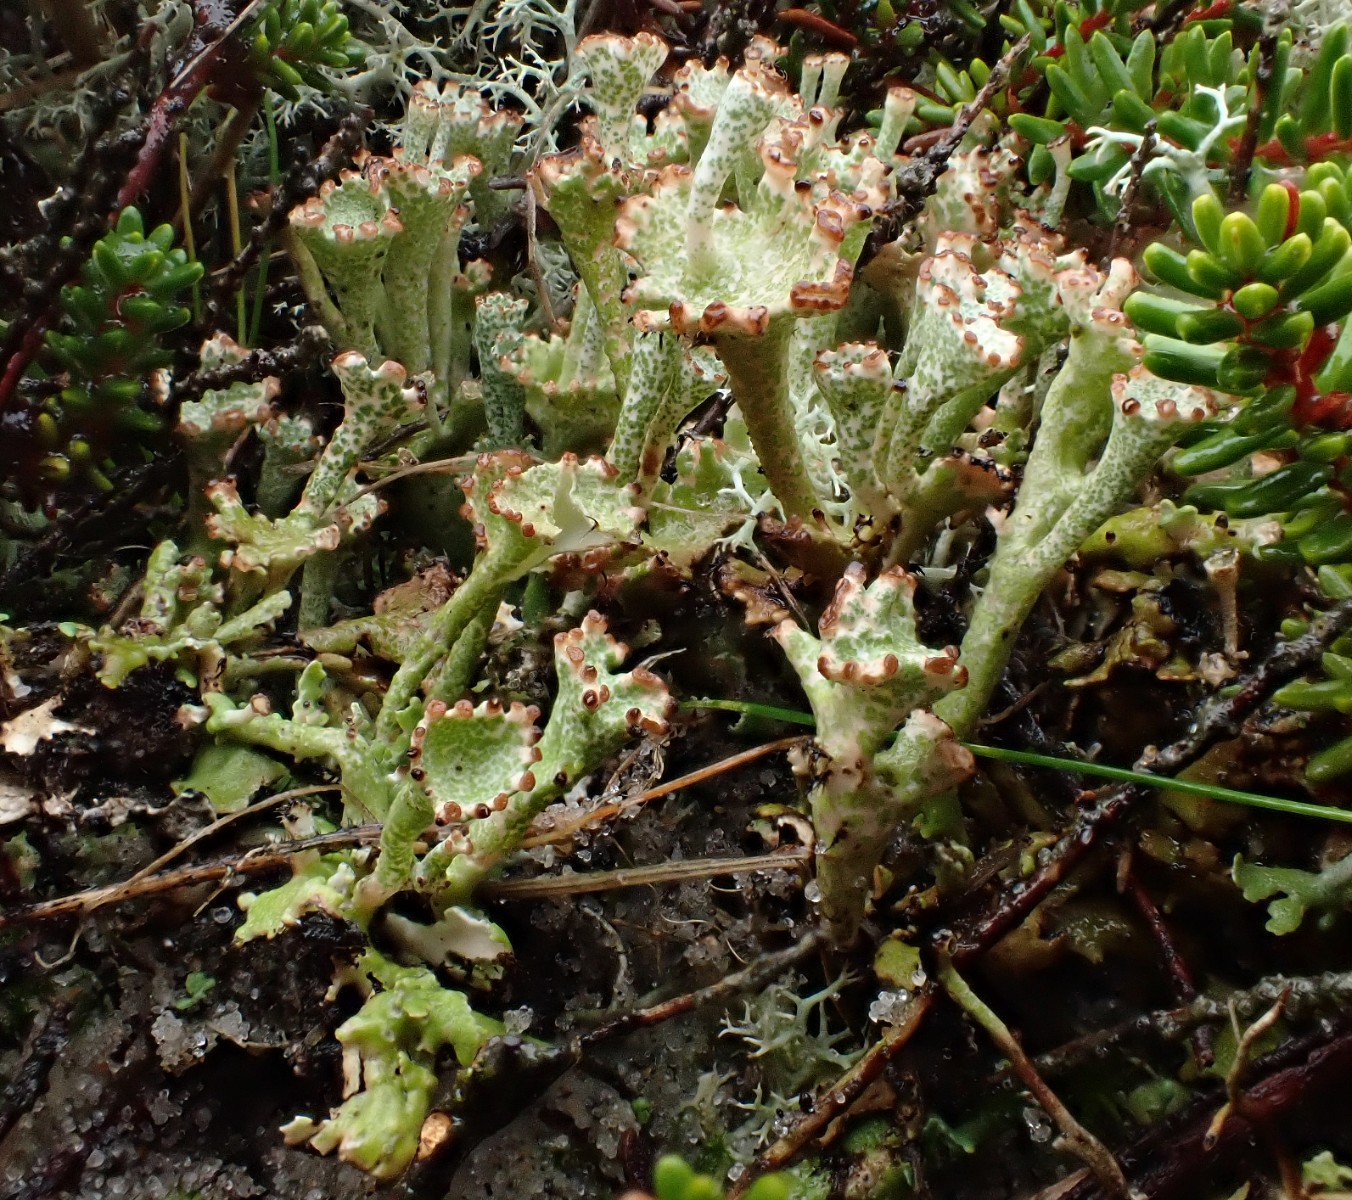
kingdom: Fungi
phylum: Ascomycota
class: Lecanoromycetes
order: Lecanorales
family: Cladoniaceae
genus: Cladonia
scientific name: Cladonia cervicornis
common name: etage-bægerlav
